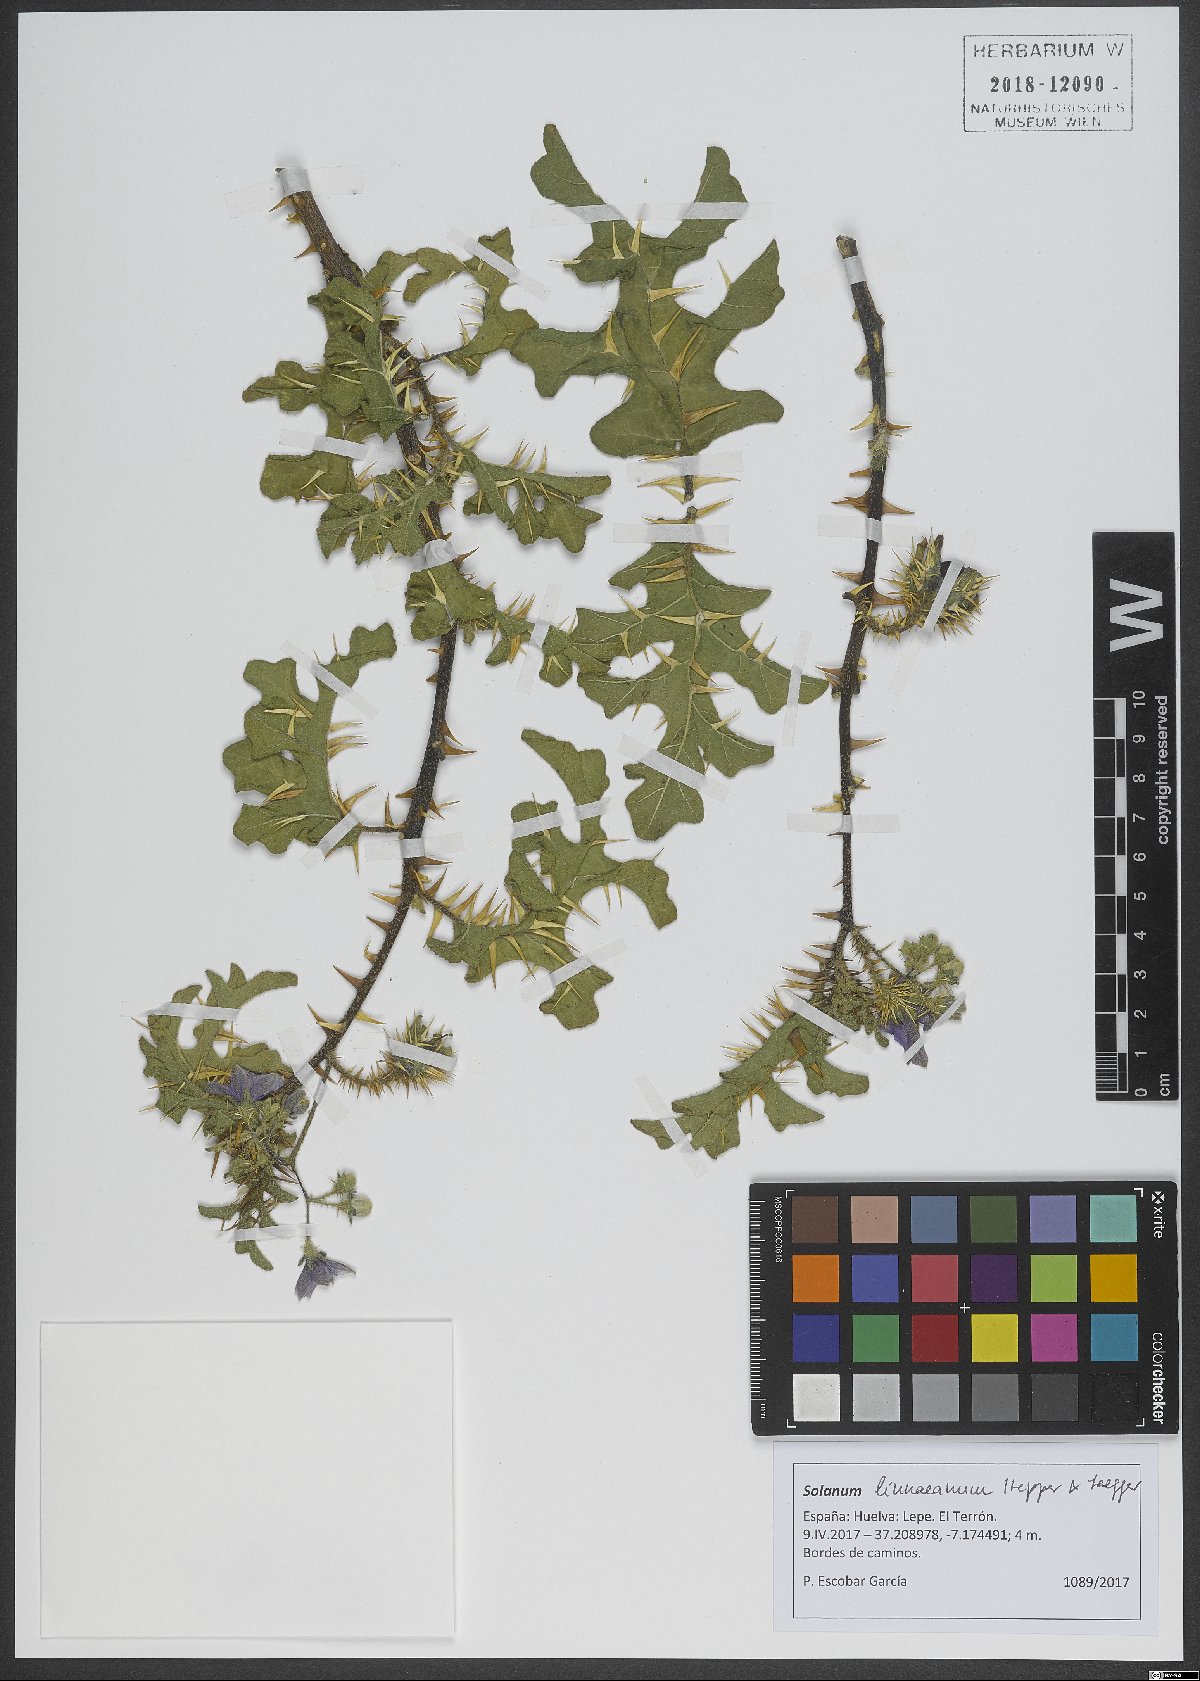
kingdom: Plantae
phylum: Tracheophyta
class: Magnoliopsida
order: Solanales
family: Solanaceae
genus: Solanum
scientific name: Solanum linnaeanum
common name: Nightshade
